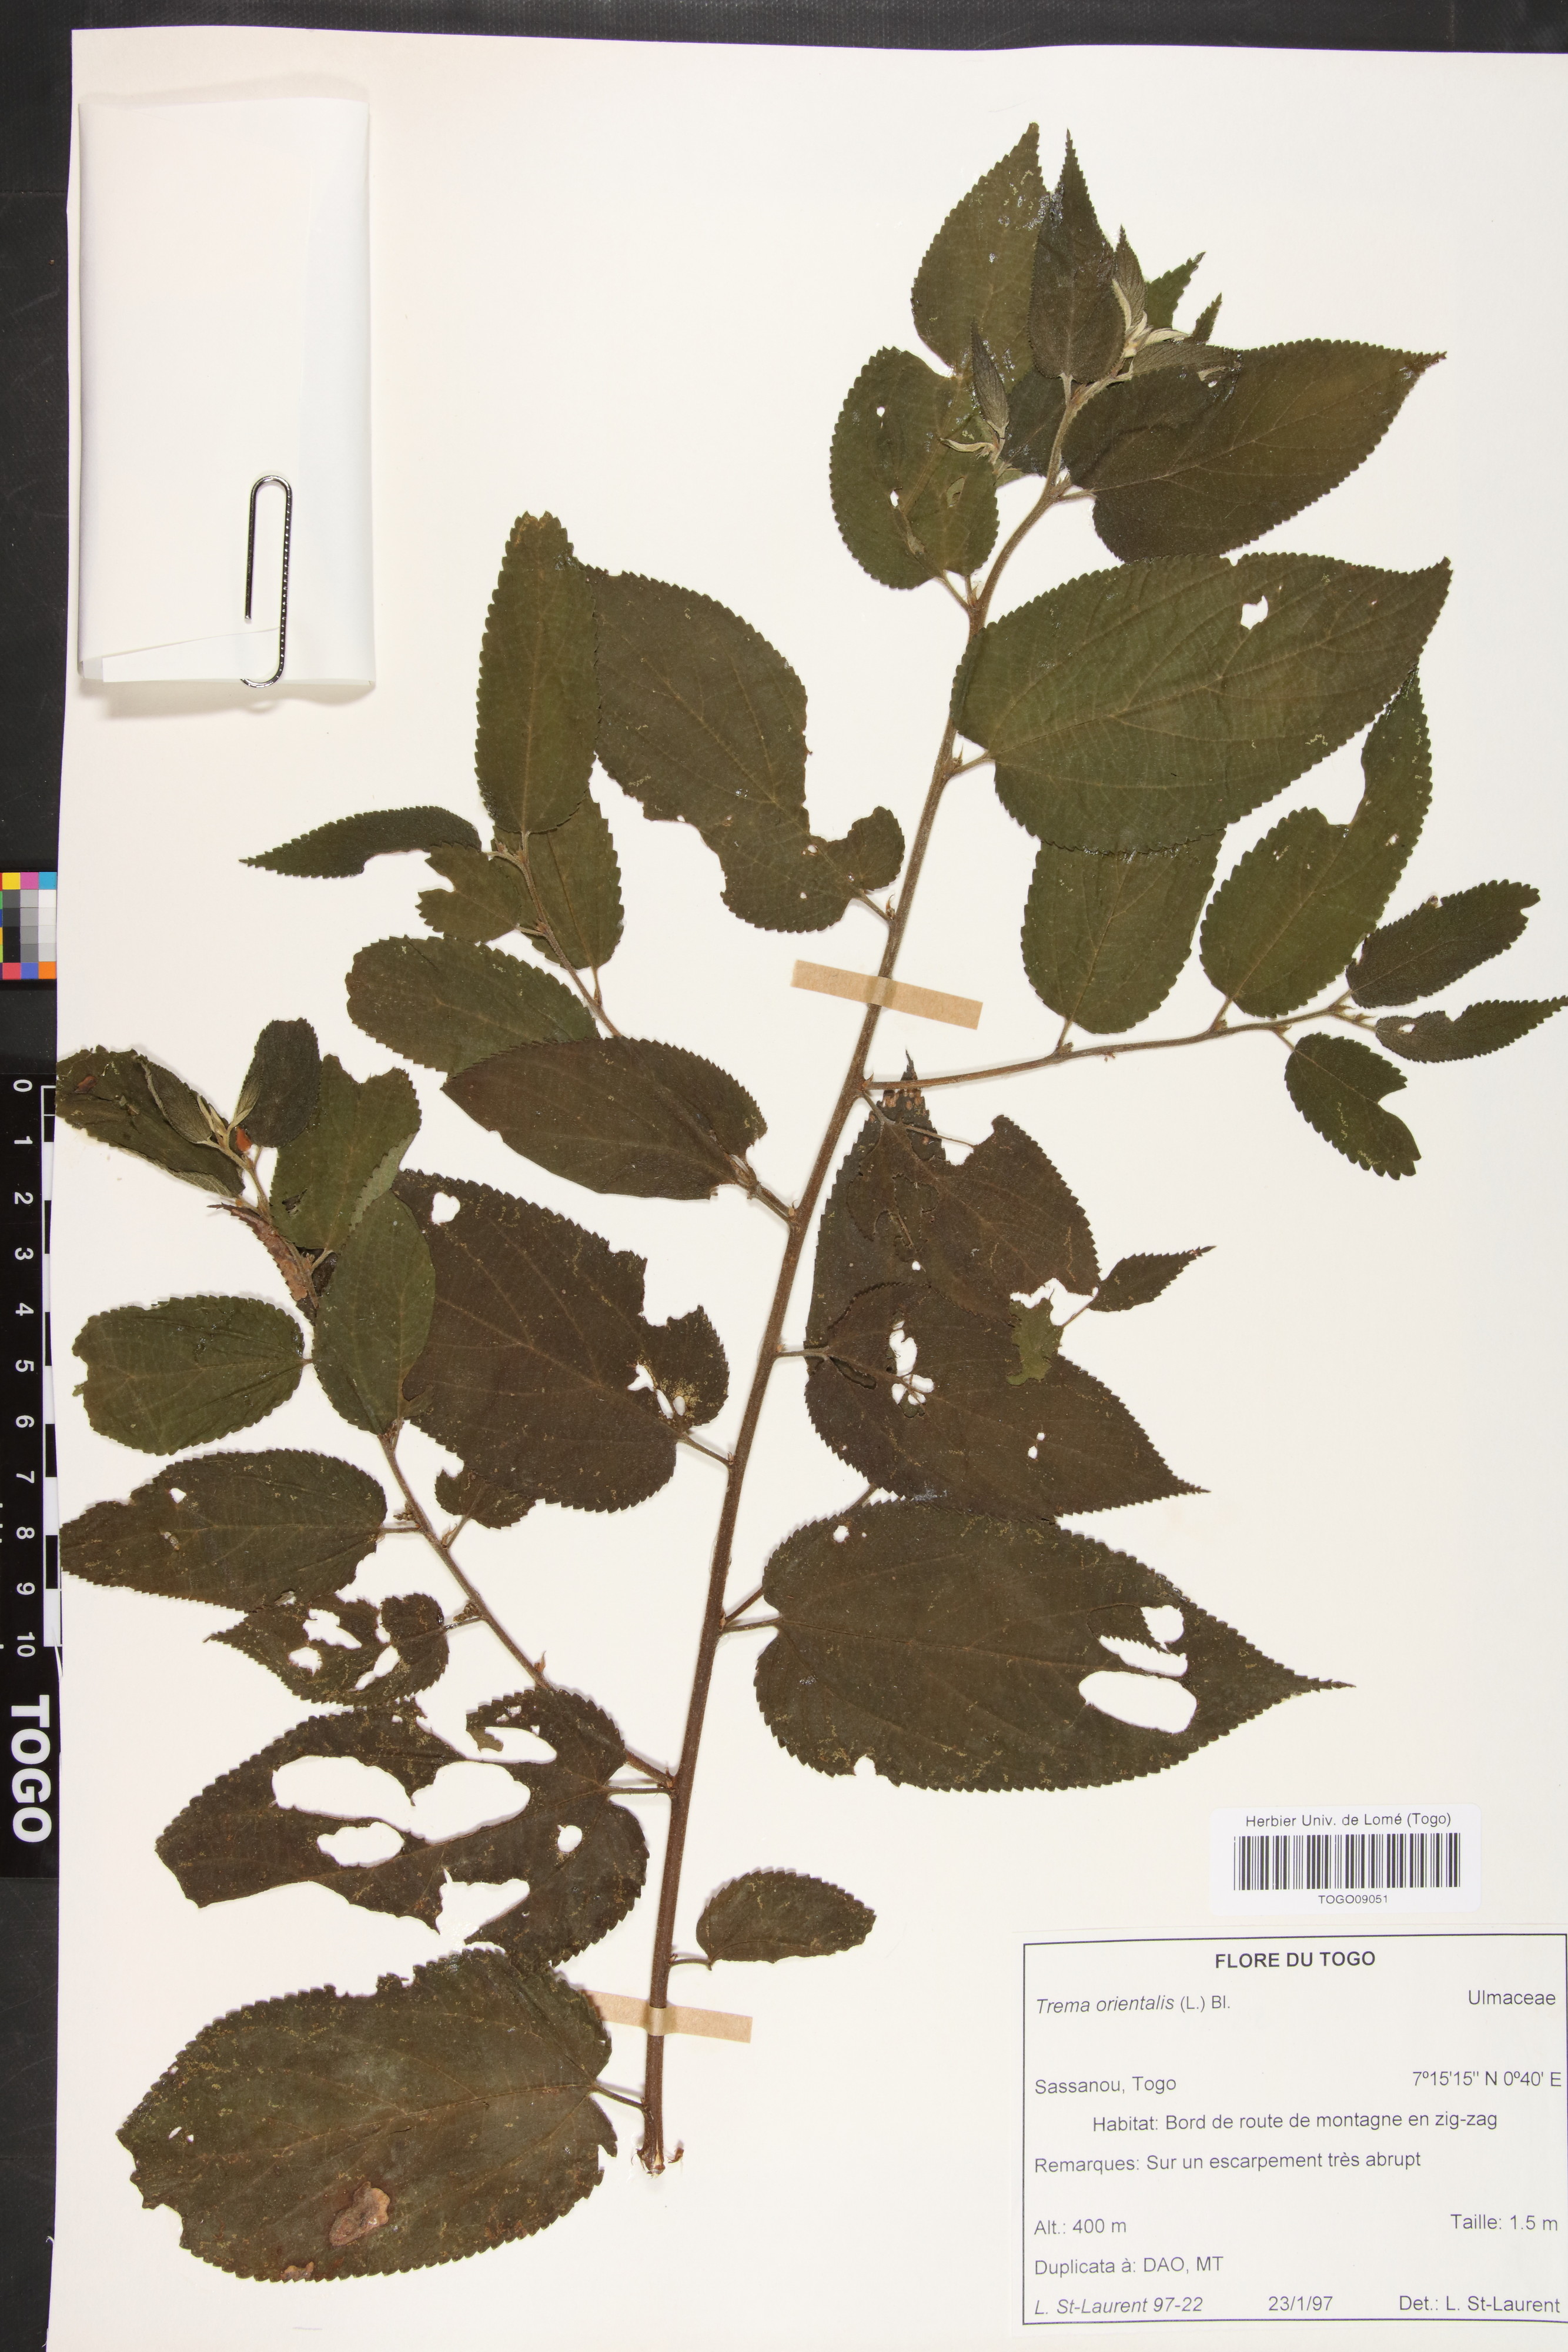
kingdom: Plantae
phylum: Tracheophyta
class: Magnoliopsida
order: Rosales
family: Cannabaceae
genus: Trema
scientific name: Trema orientale
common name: Indian charcoal tree
